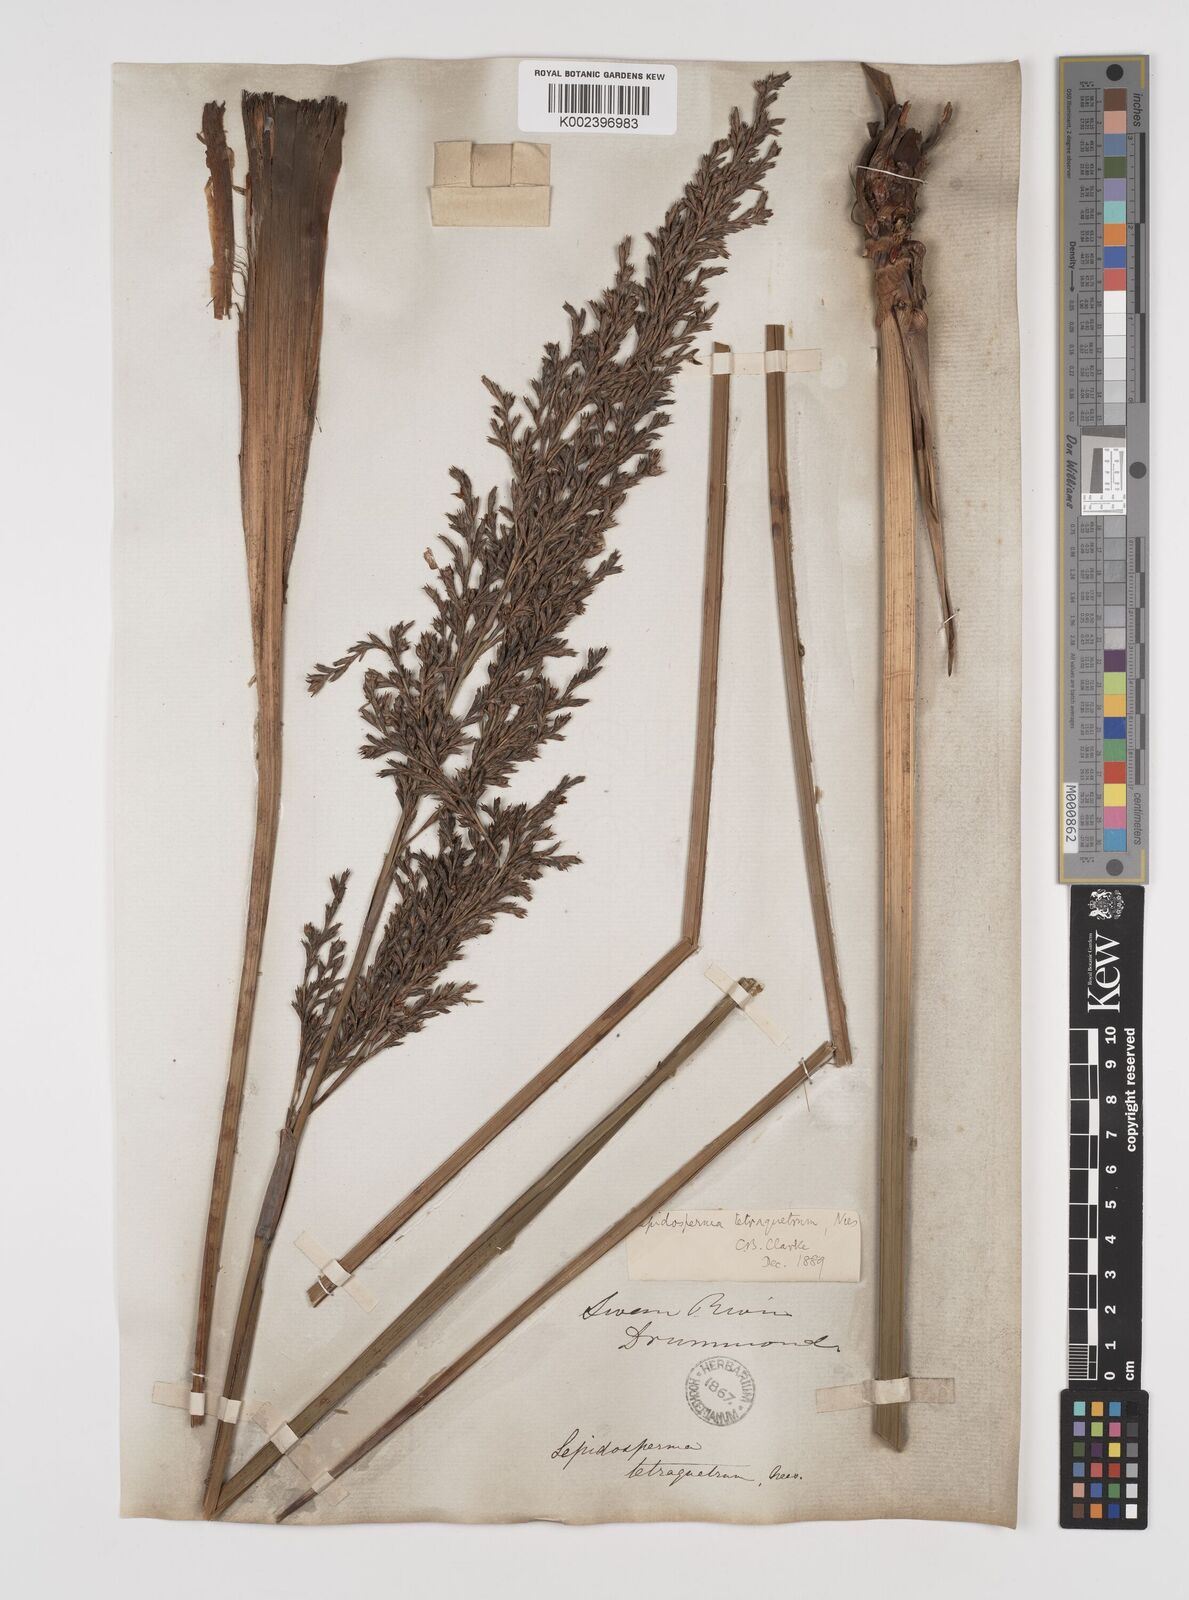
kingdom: Plantae
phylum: Tracheophyta
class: Liliopsida
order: Poales
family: Cyperaceae
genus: Lepidosperma
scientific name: Lepidosperma tetraquetrum
